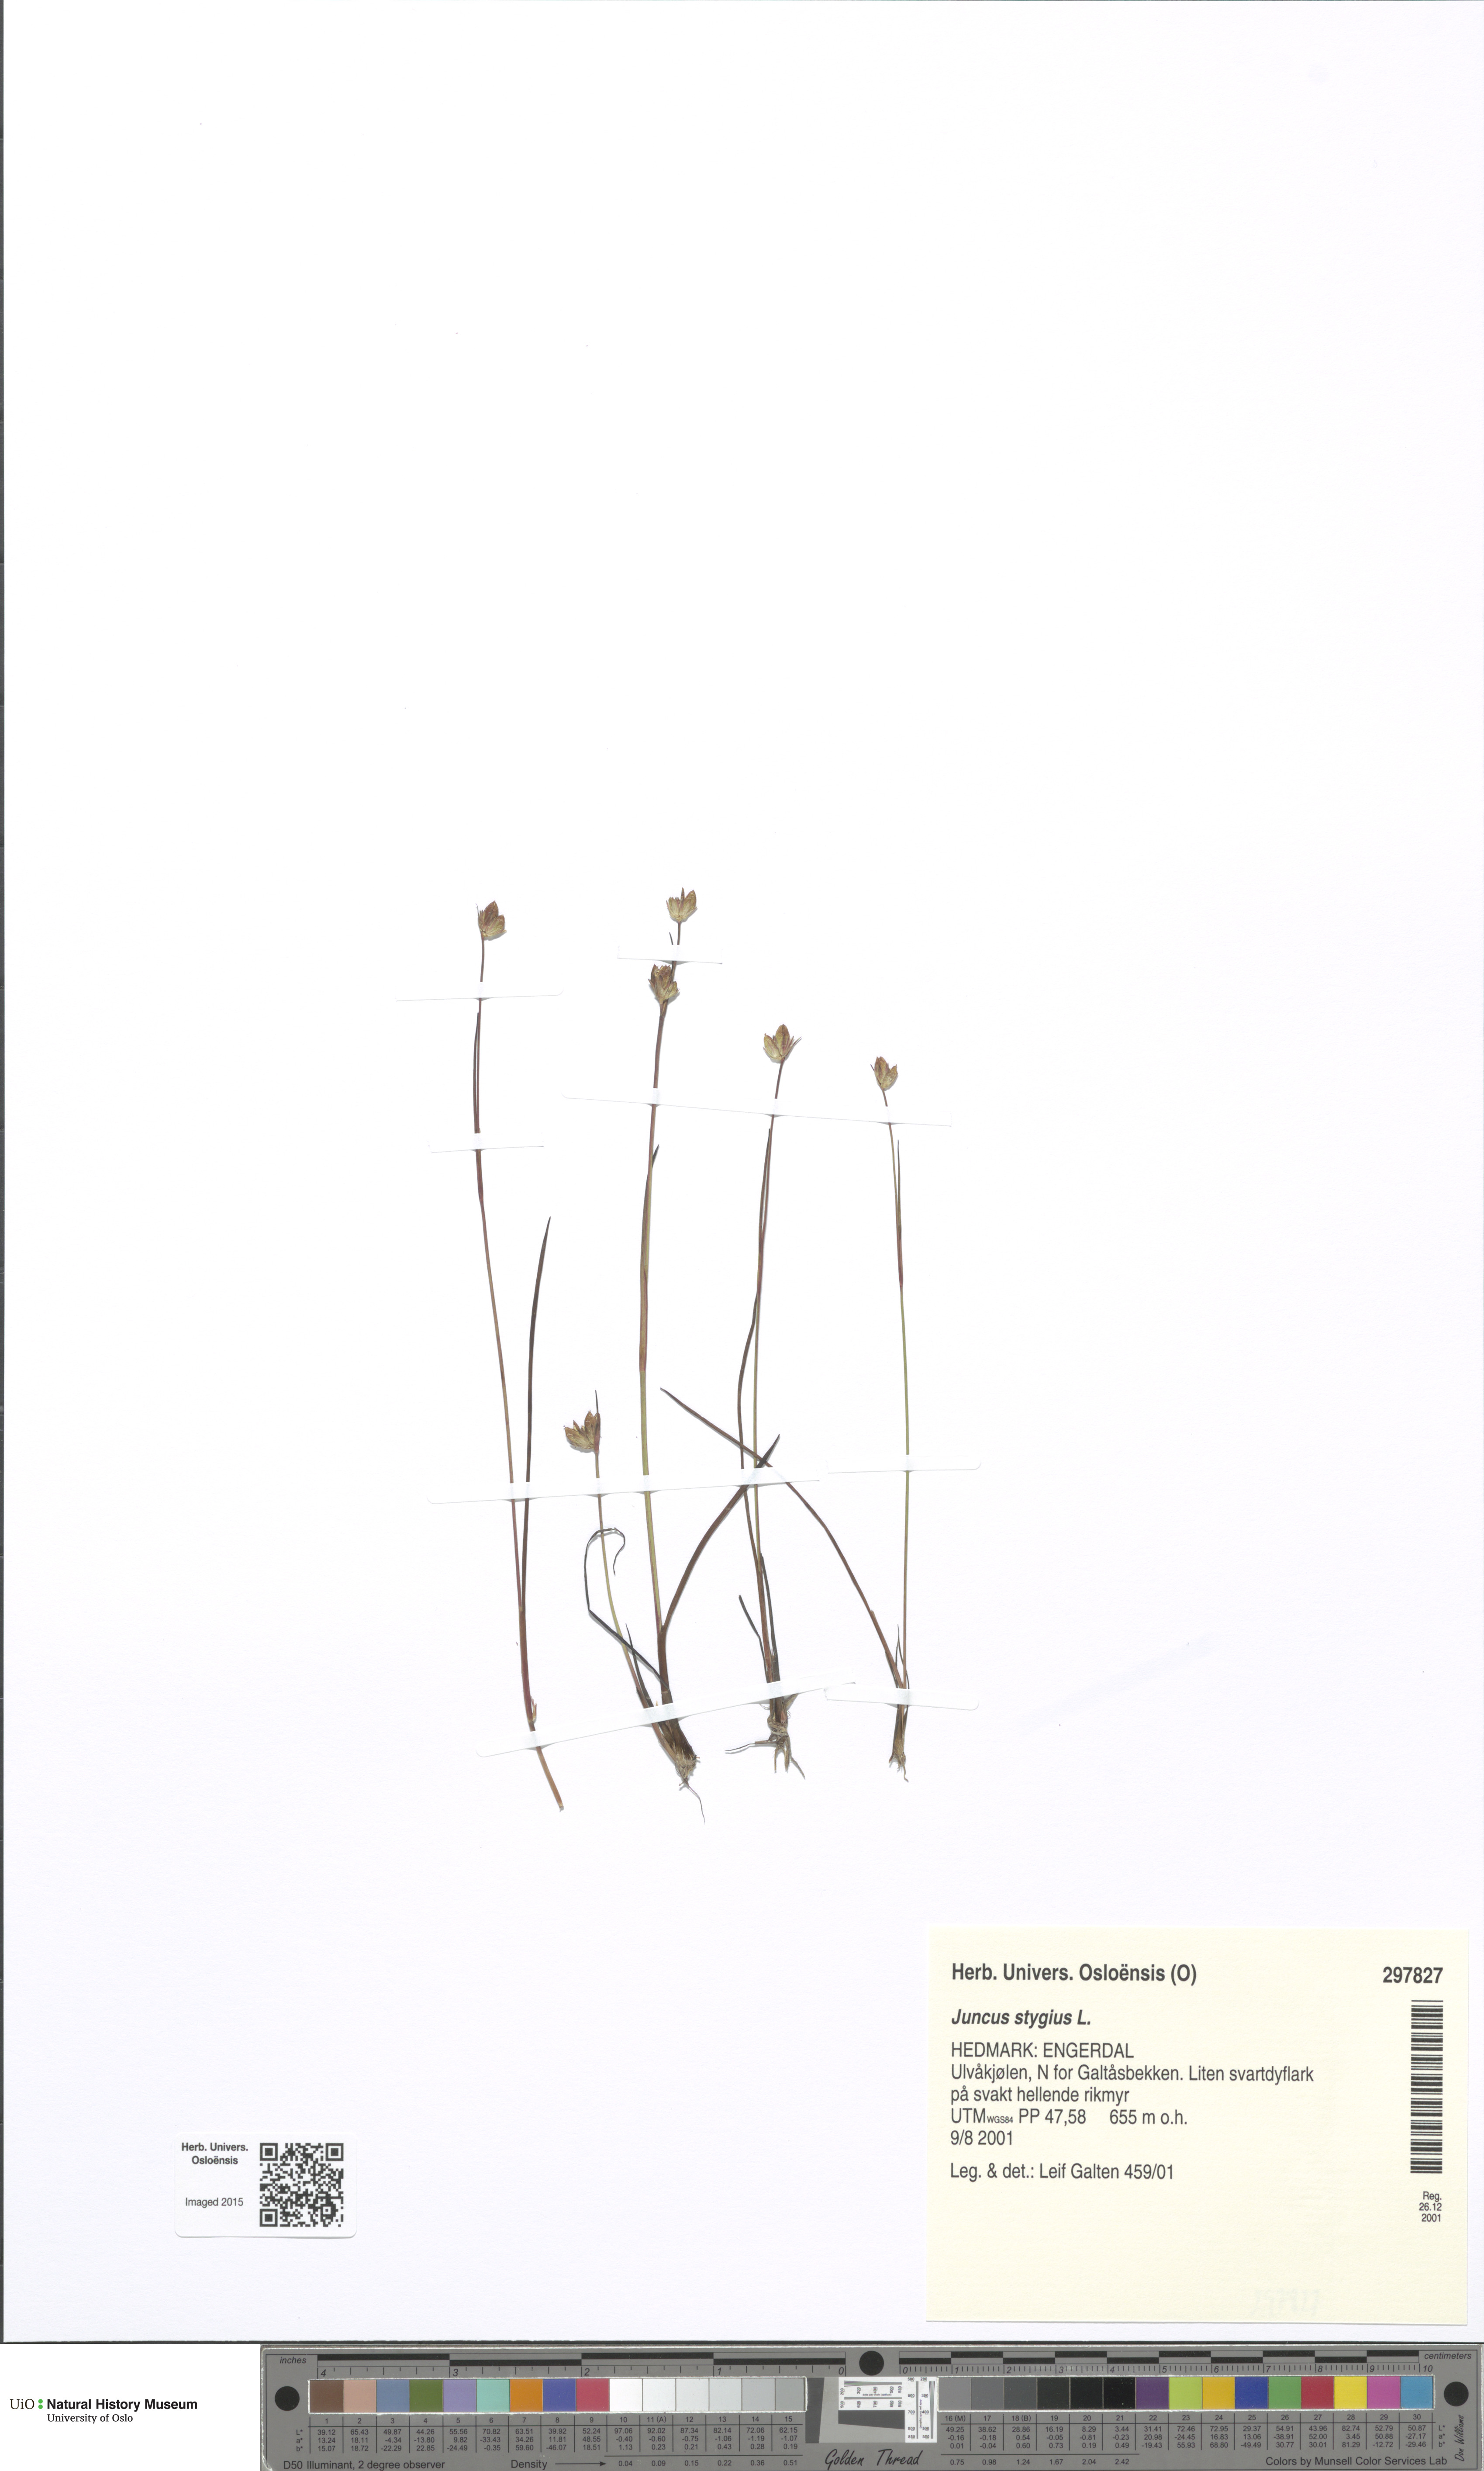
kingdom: Plantae
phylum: Tracheophyta
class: Liliopsida
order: Poales
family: Juncaceae
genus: Juncus
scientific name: Juncus stygius
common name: Bog rush
